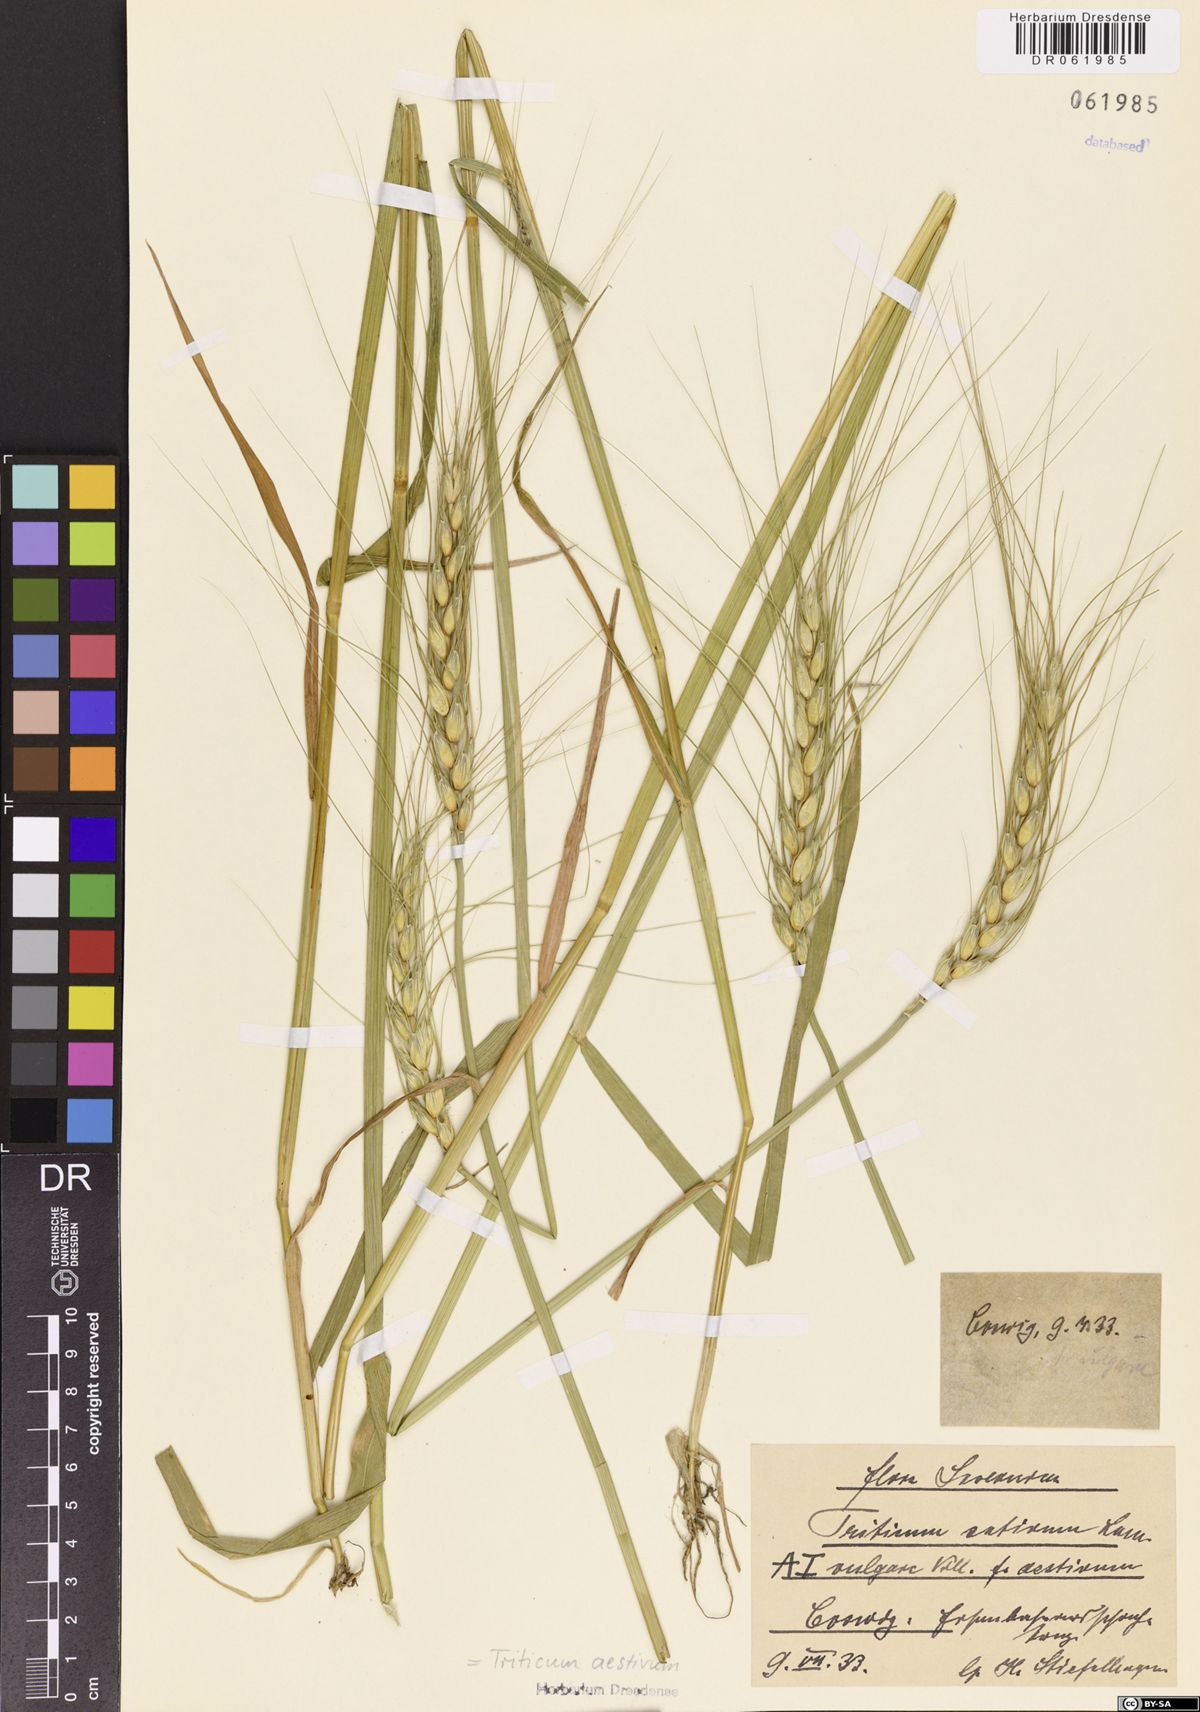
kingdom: Plantae
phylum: Tracheophyta
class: Liliopsida
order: Poales
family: Poaceae
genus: Triticum
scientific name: Triticum aestivum
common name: Common wheat
